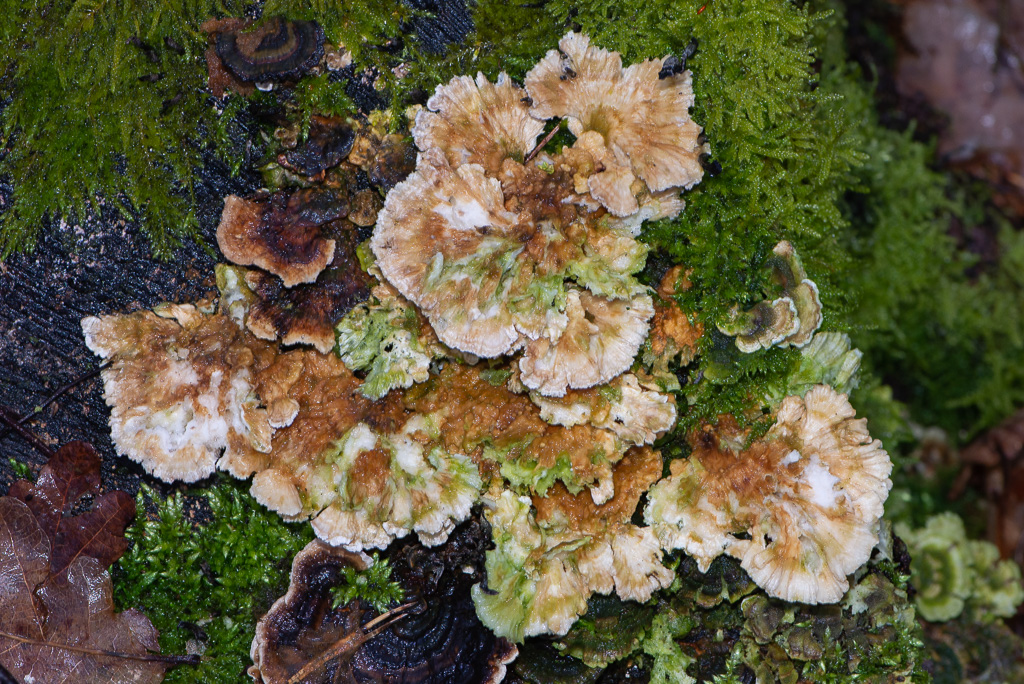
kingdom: Fungi
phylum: Basidiomycota
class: Agaricomycetes
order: Polyporales
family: Polyporaceae
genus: Trametes
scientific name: Trametes ochracea
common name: bæltet læderporesvamp
